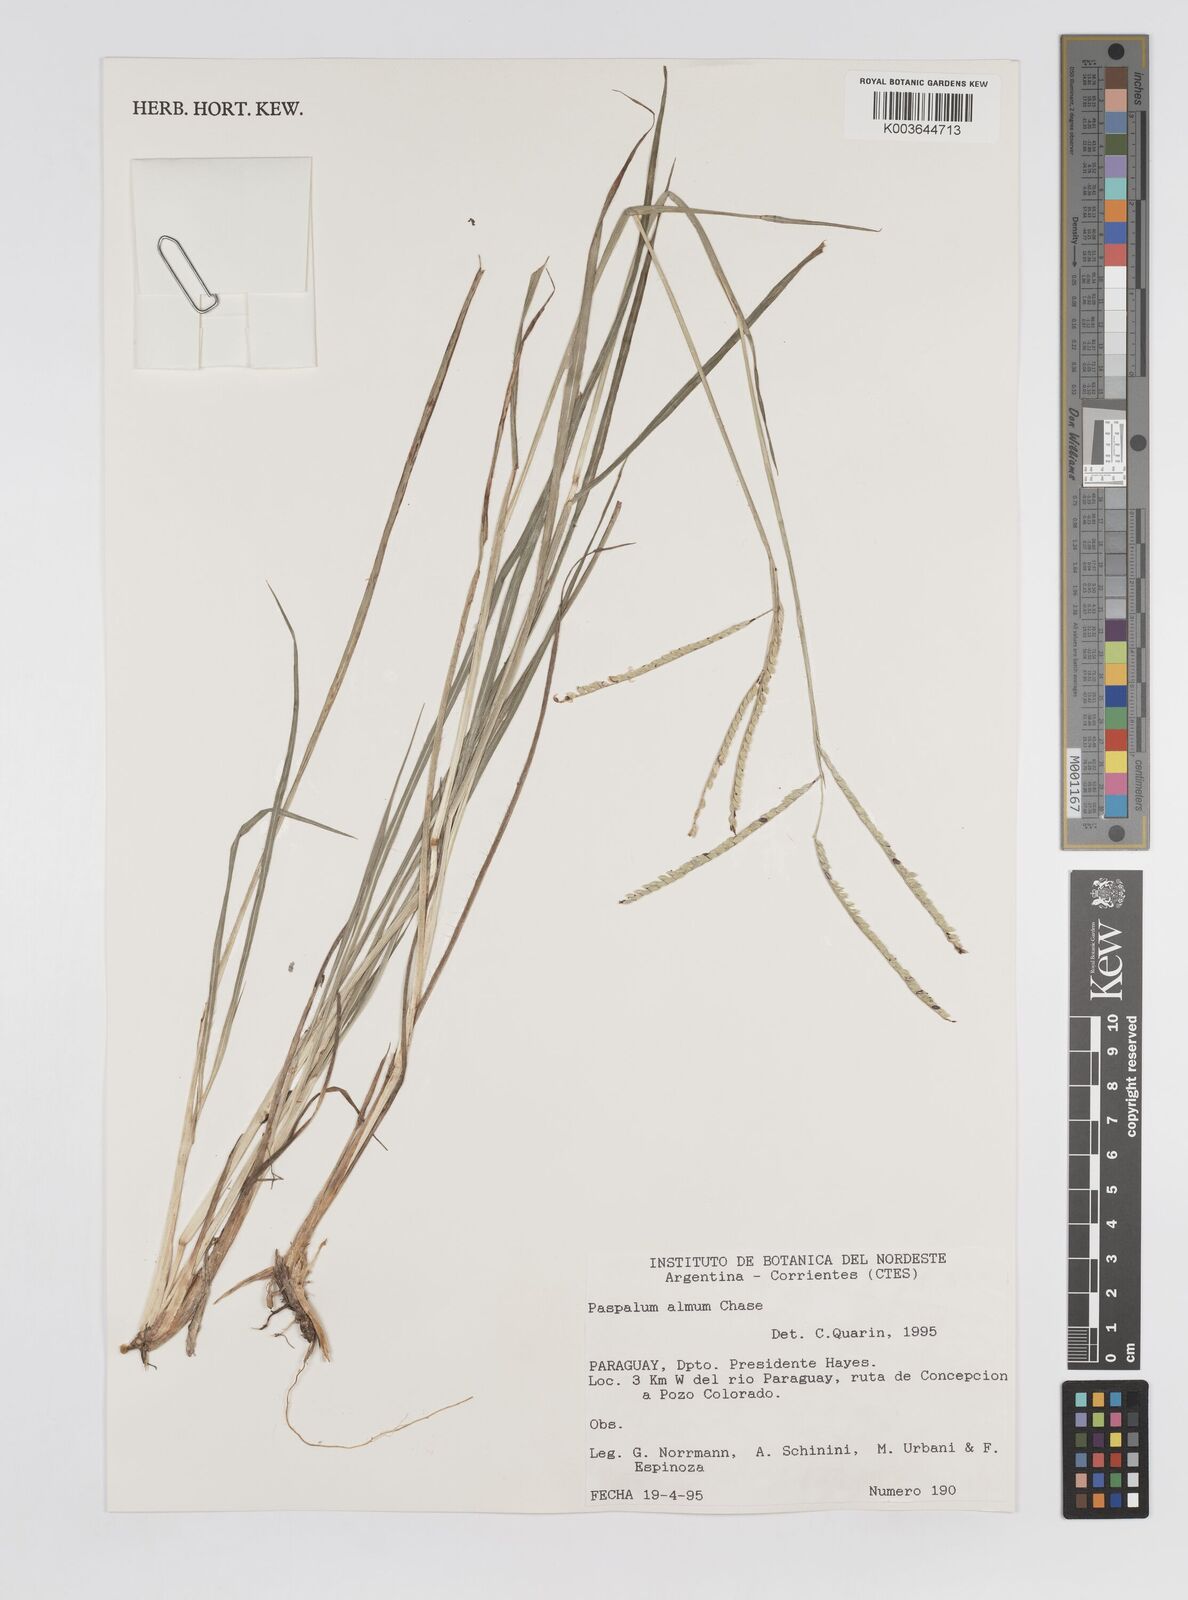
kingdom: Plantae
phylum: Tracheophyta
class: Liliopsida
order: Poales
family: Poaceae
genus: Paspalum
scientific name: Paspalum almum
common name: Comb's crowngrass
